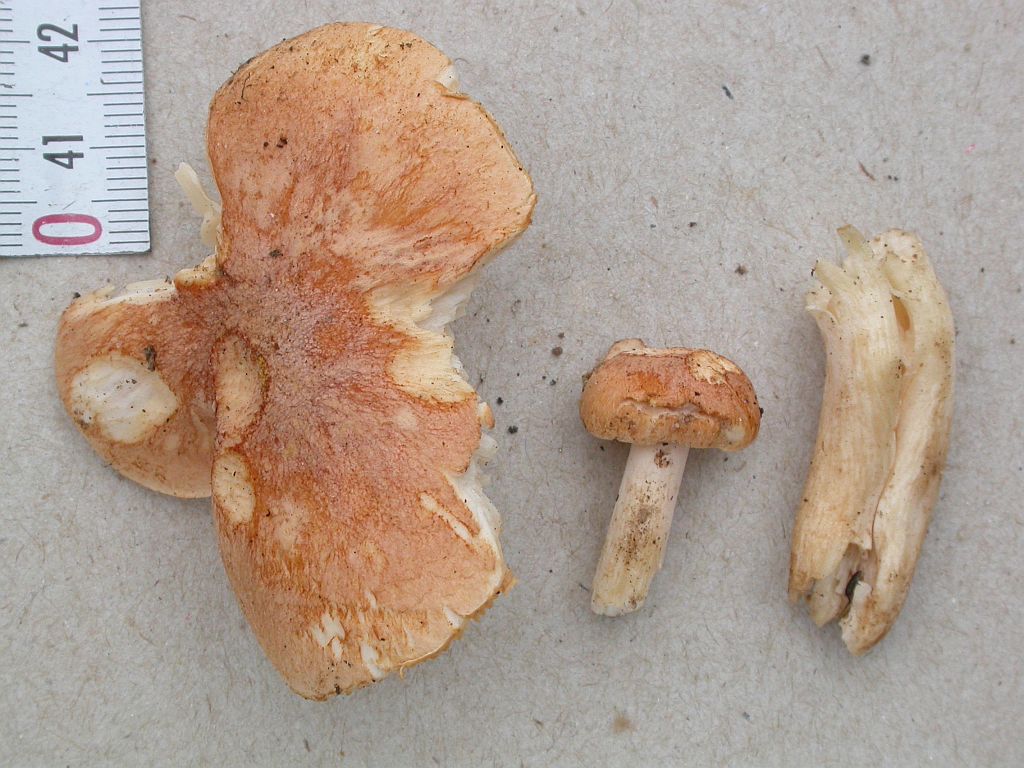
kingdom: Fungi
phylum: Basidiomycota
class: Agaricomycetes
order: Agaricales
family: Hygrophoraceae
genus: Hygrophorus
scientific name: Hygrophorus nemoreus
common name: lund-sneglehat
